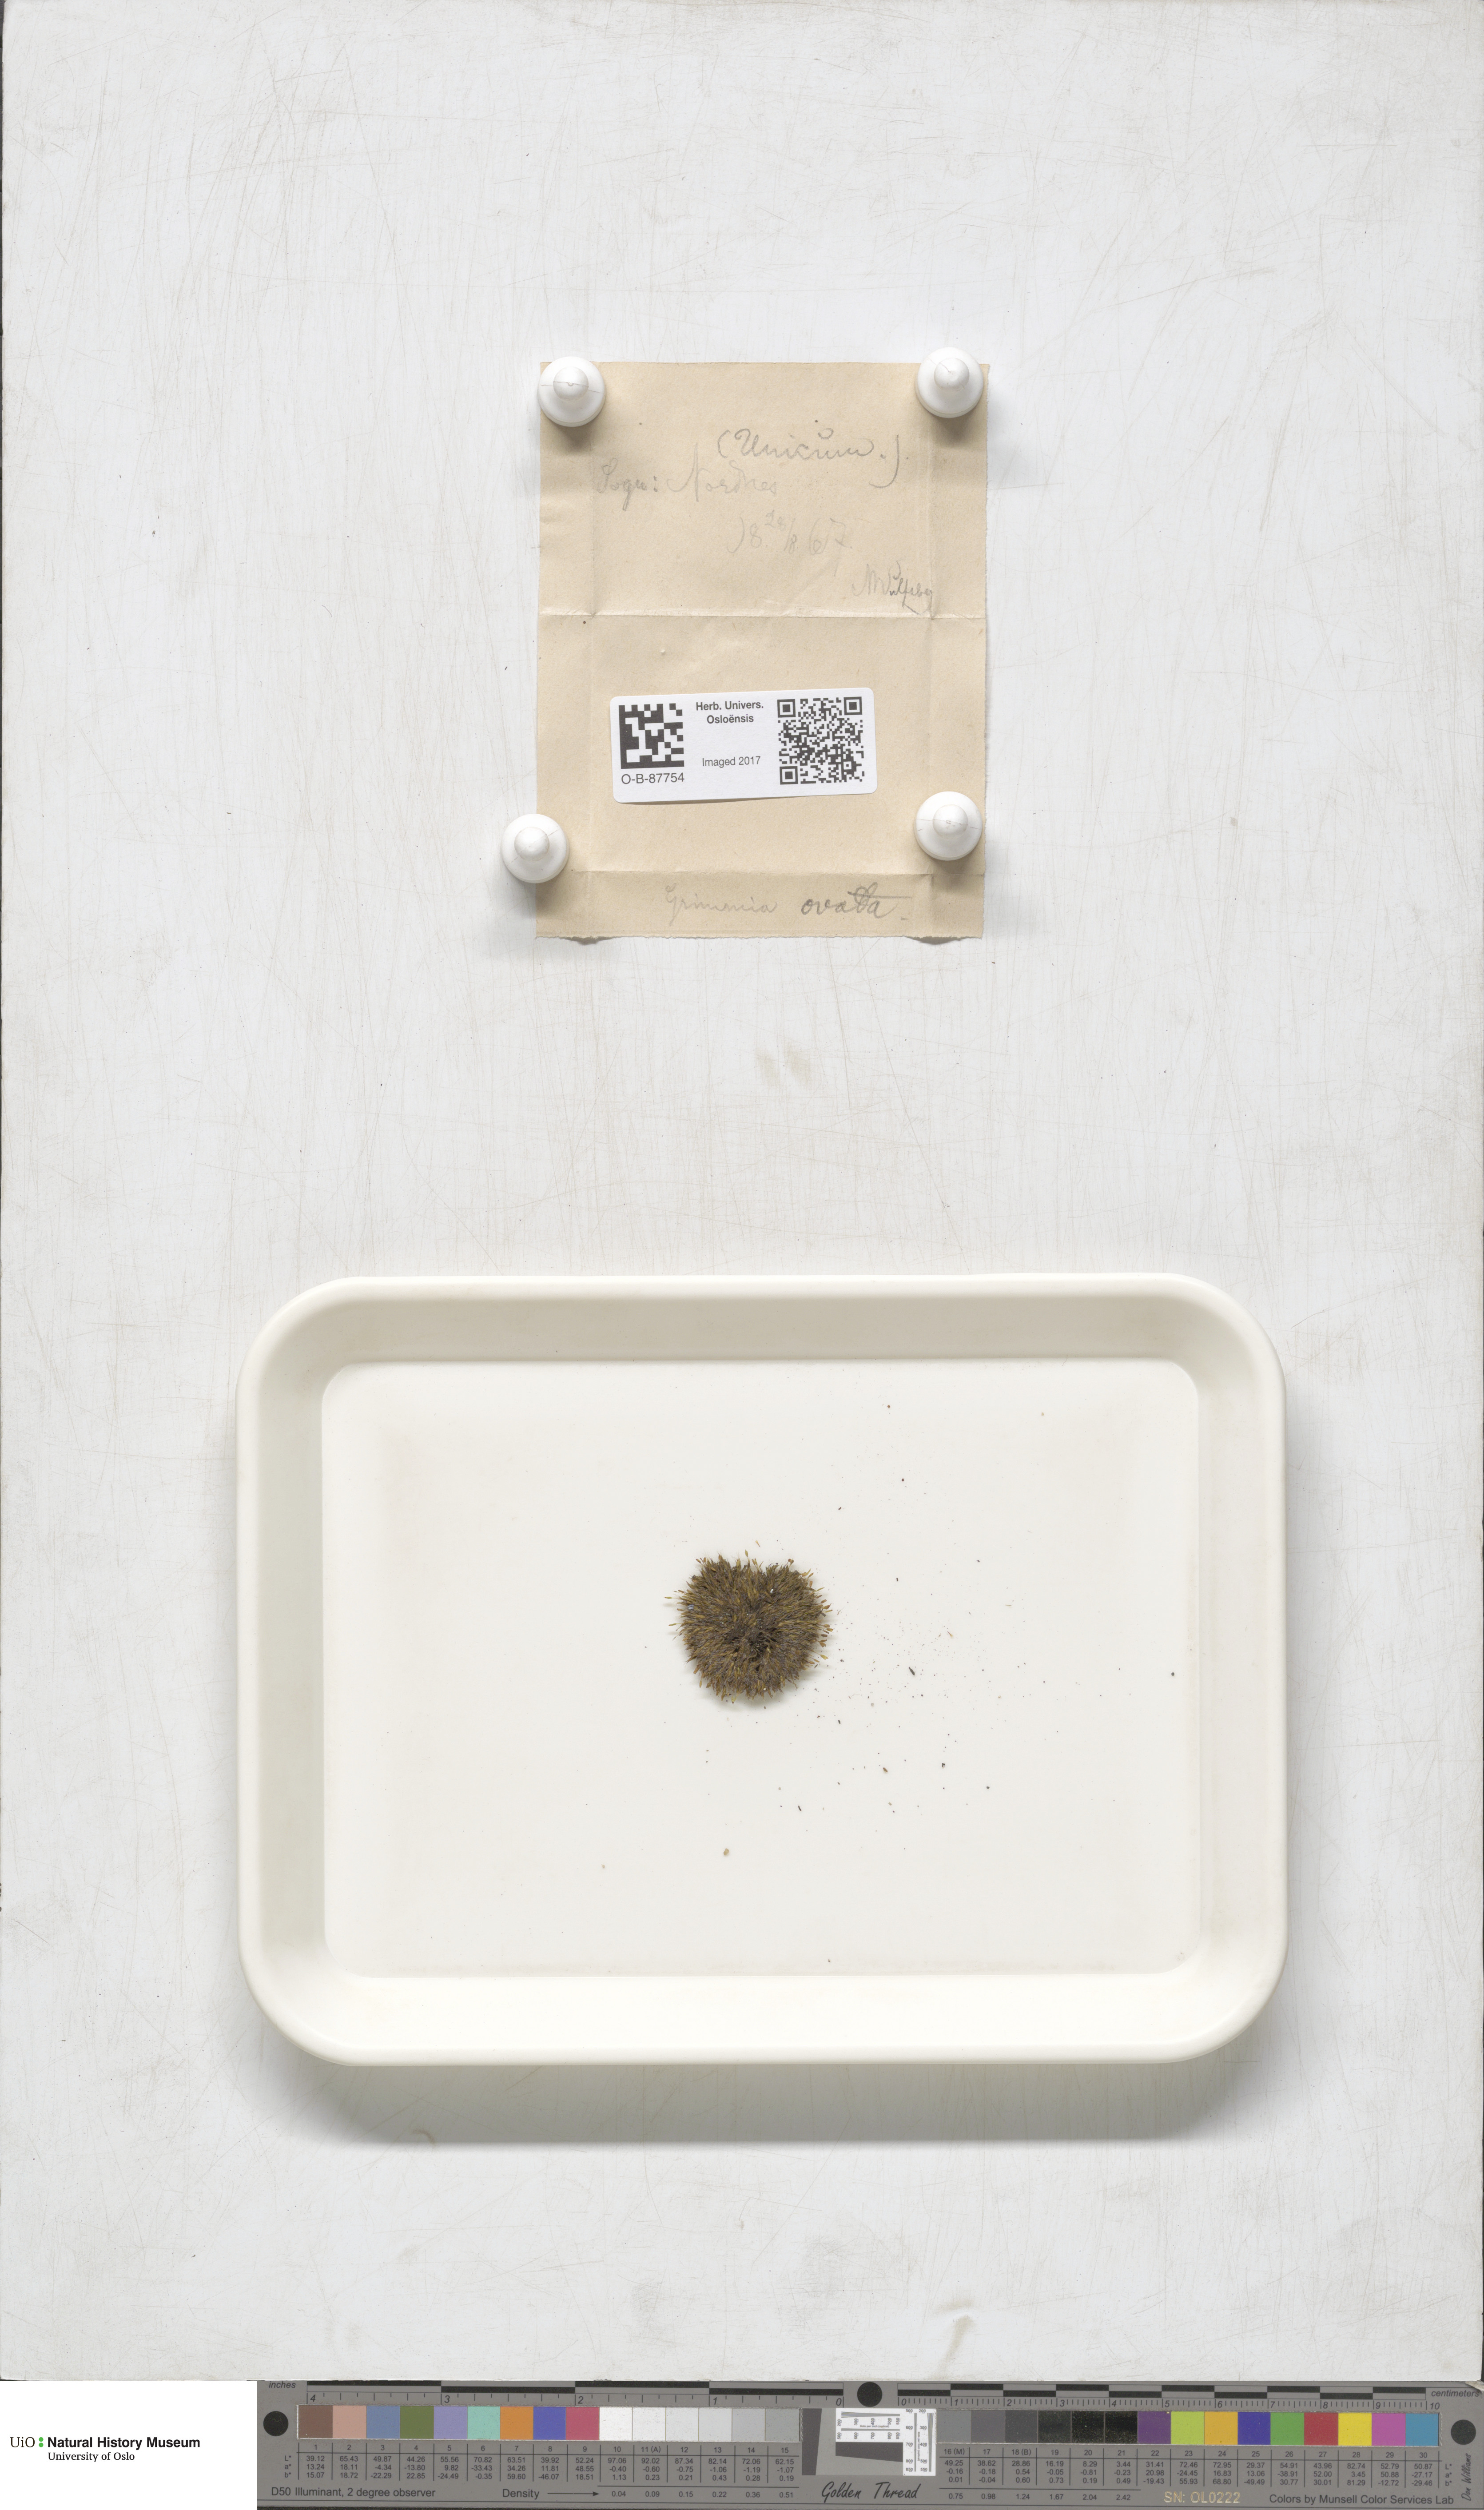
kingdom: Plantae
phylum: Bryophyta
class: Bryopsida
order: Grimmiales
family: Grimmiaceae
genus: Grimmia
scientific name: Grimmia ovalis
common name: Oval grimmia
